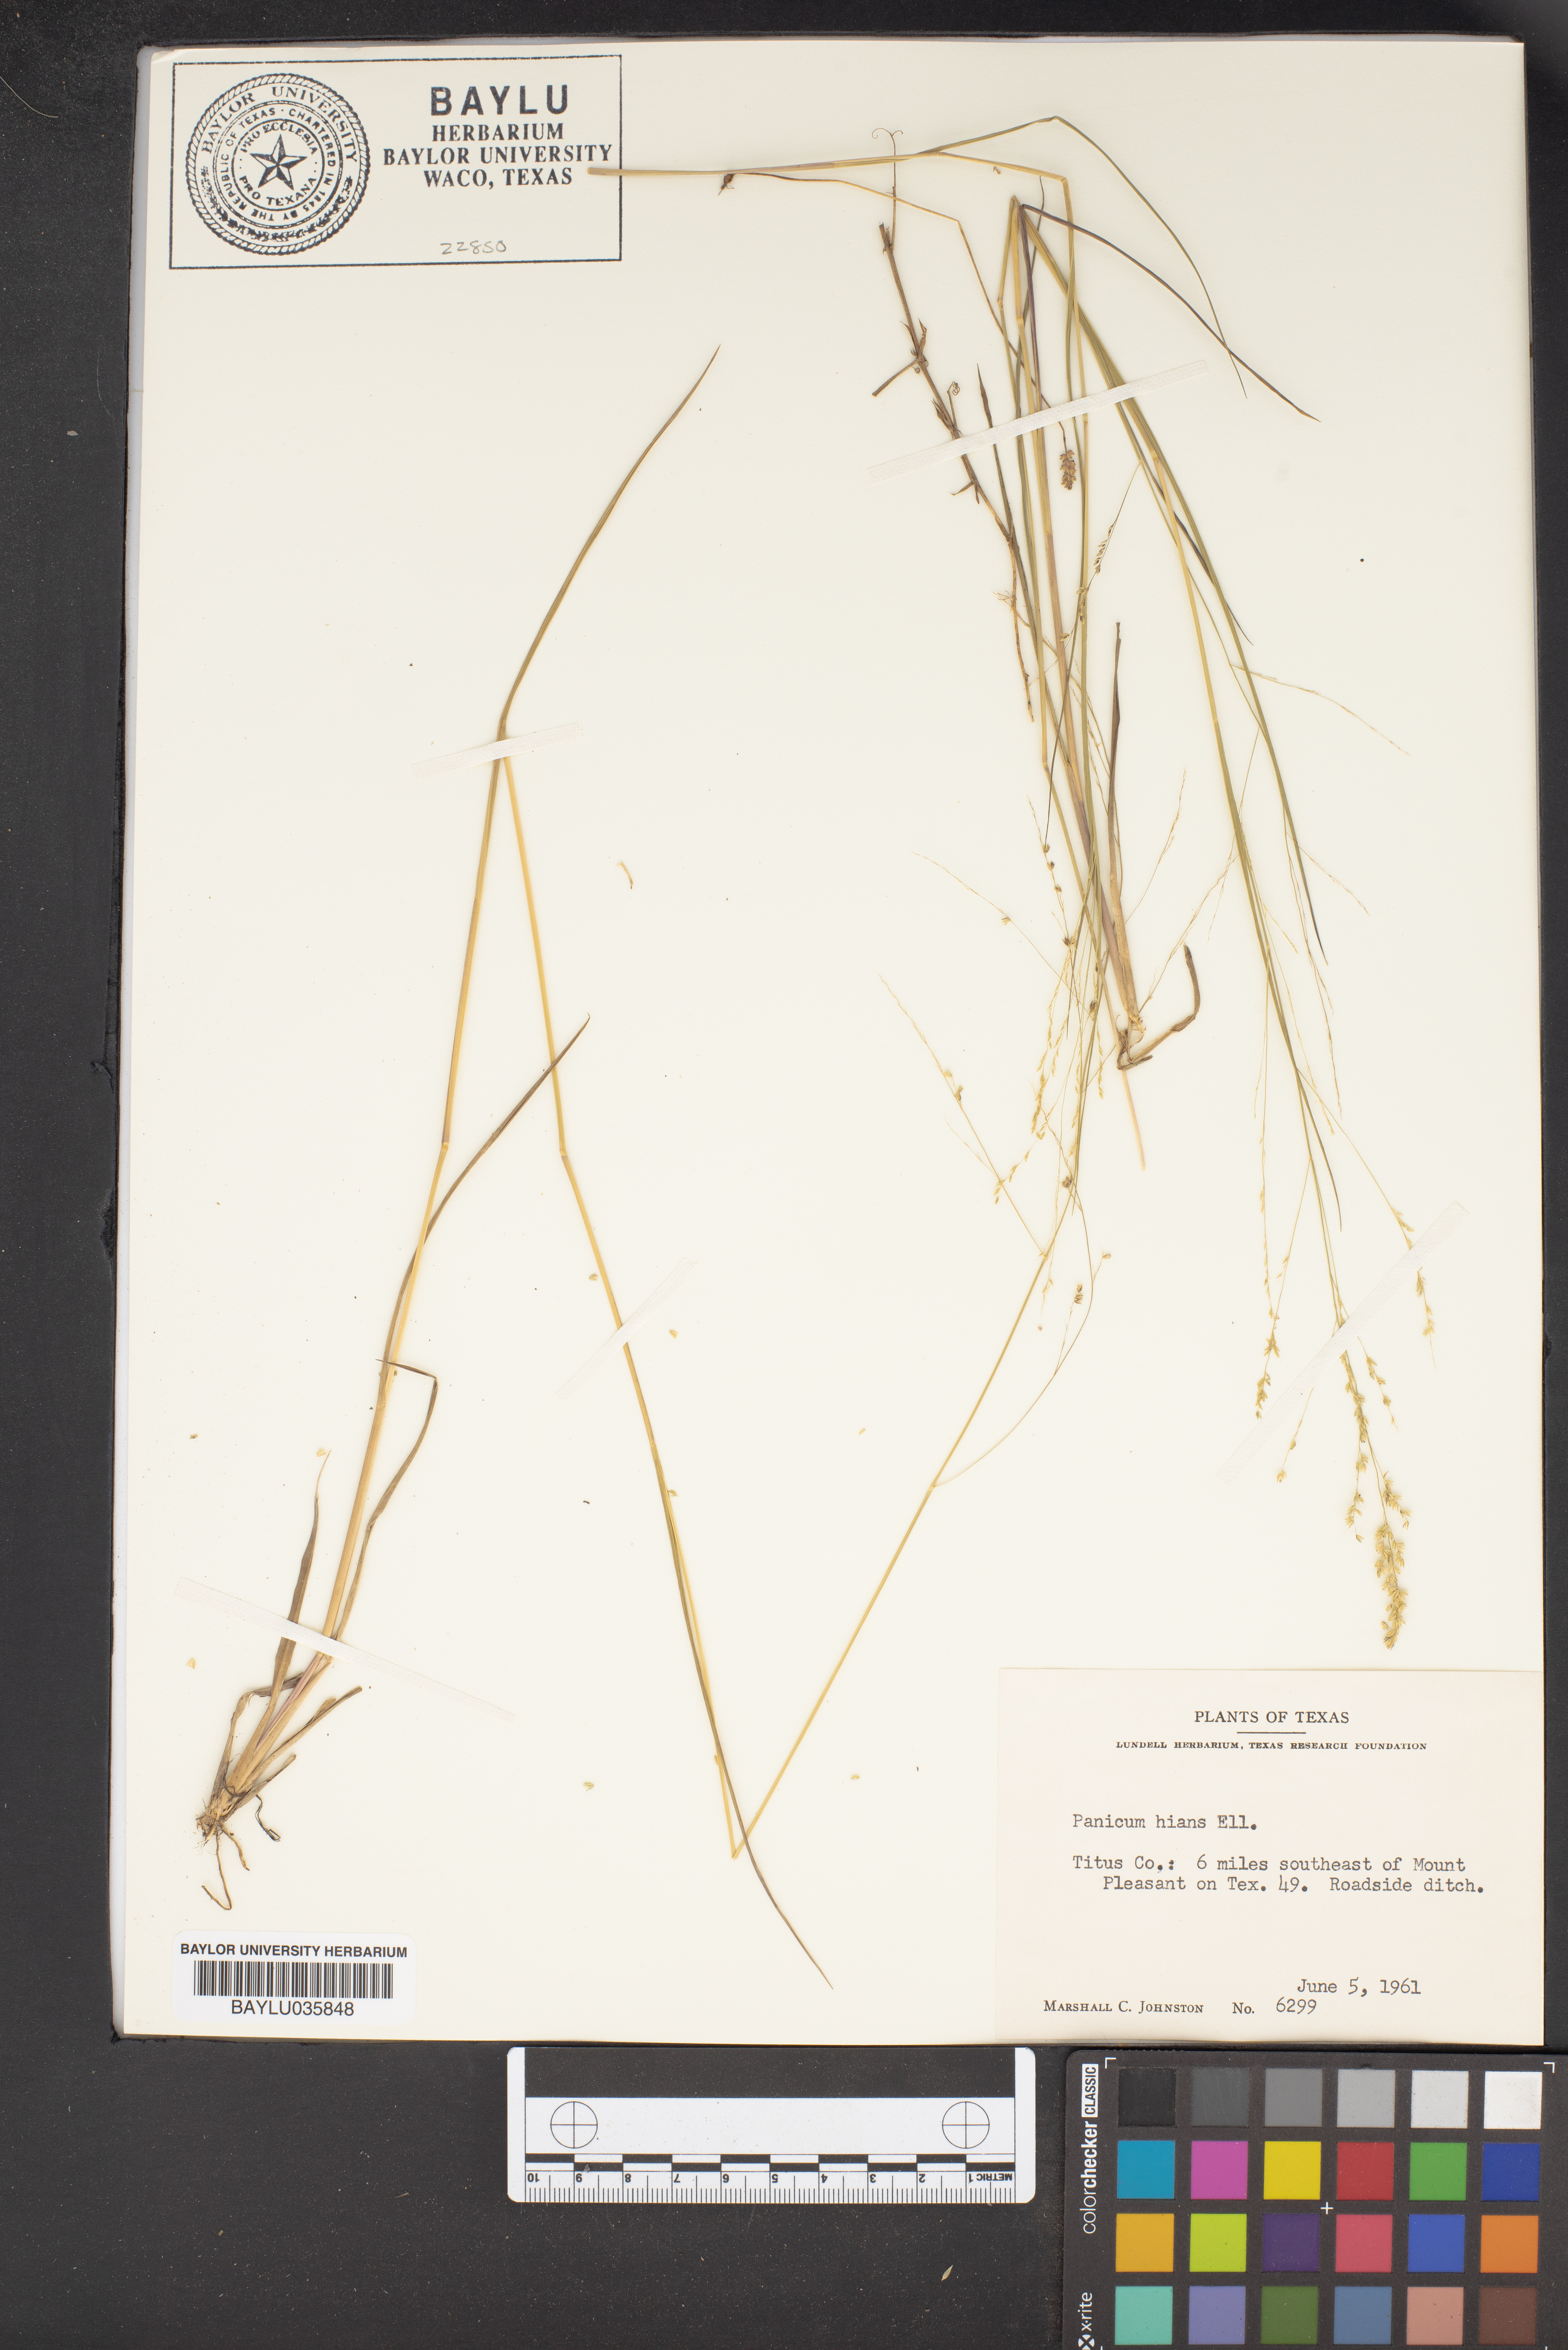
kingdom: Plantae
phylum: Tracheophyta
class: Liliopsida
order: Poales
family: Poaceae
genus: Coleataenia
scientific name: Coleataenia stenodes
